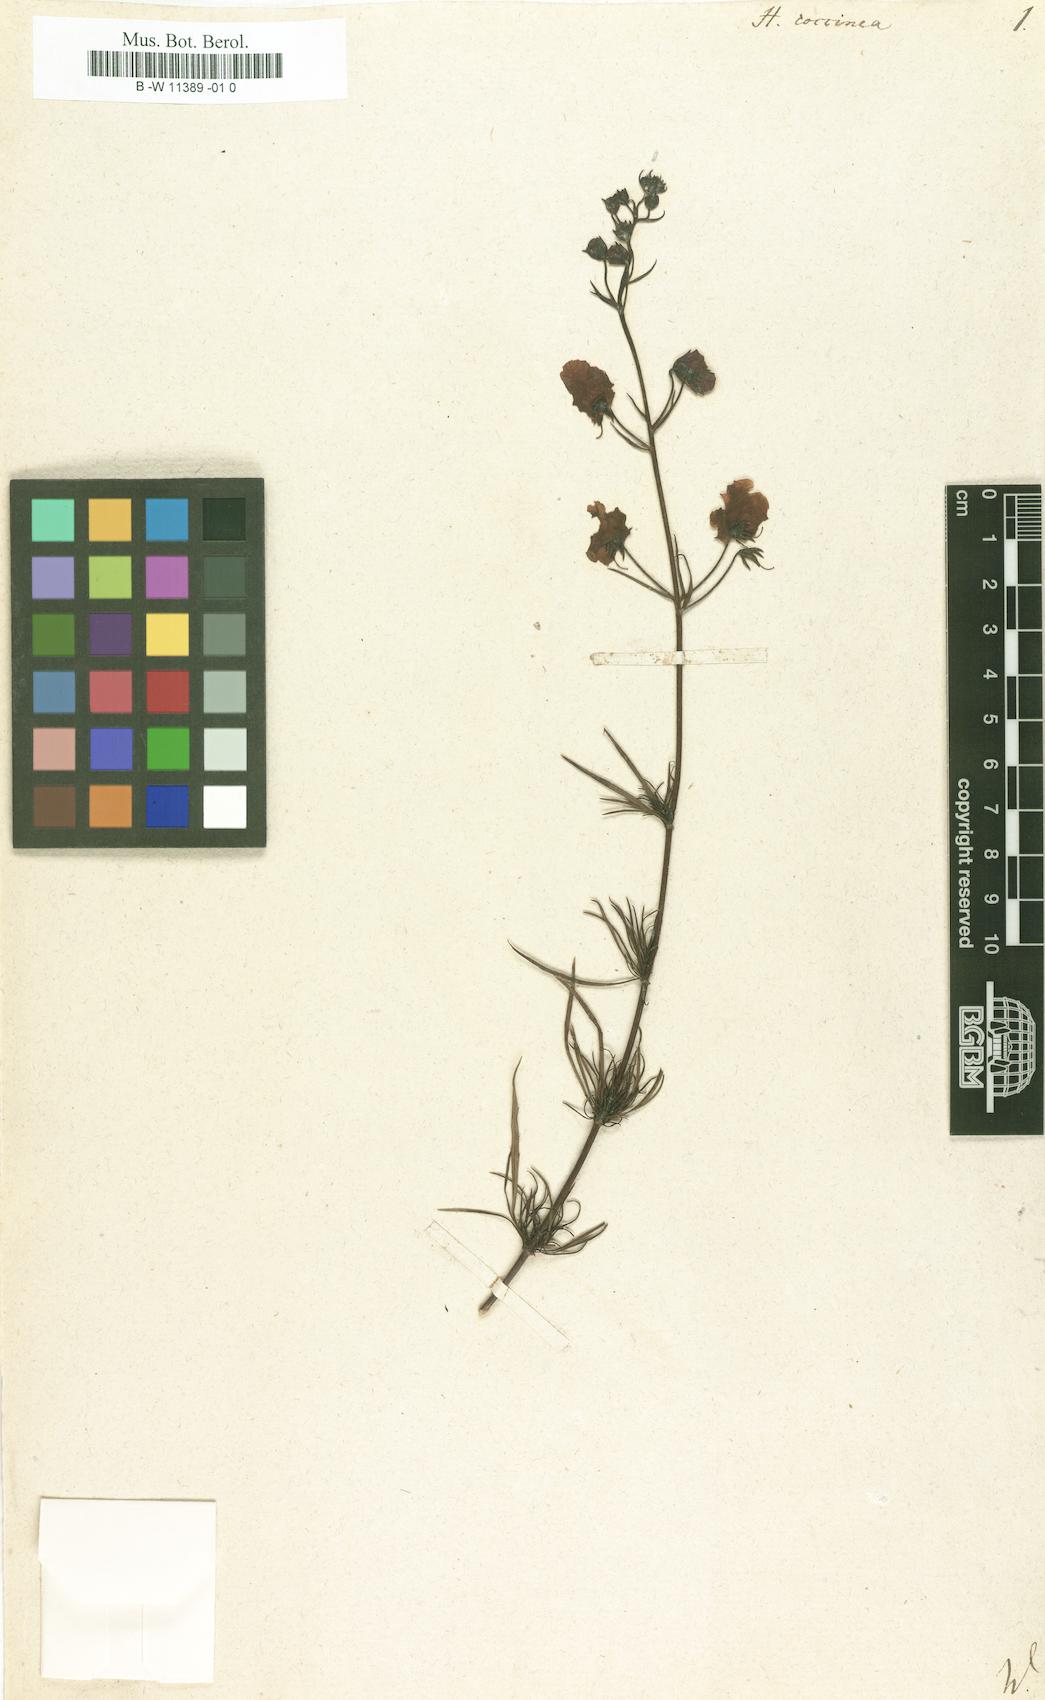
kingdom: Plantae
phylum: Tracheophyta
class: Magnoliopsida
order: Lamiales
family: Scrophulariaceae
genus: Alonsoa
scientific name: Alonsoa linearis
